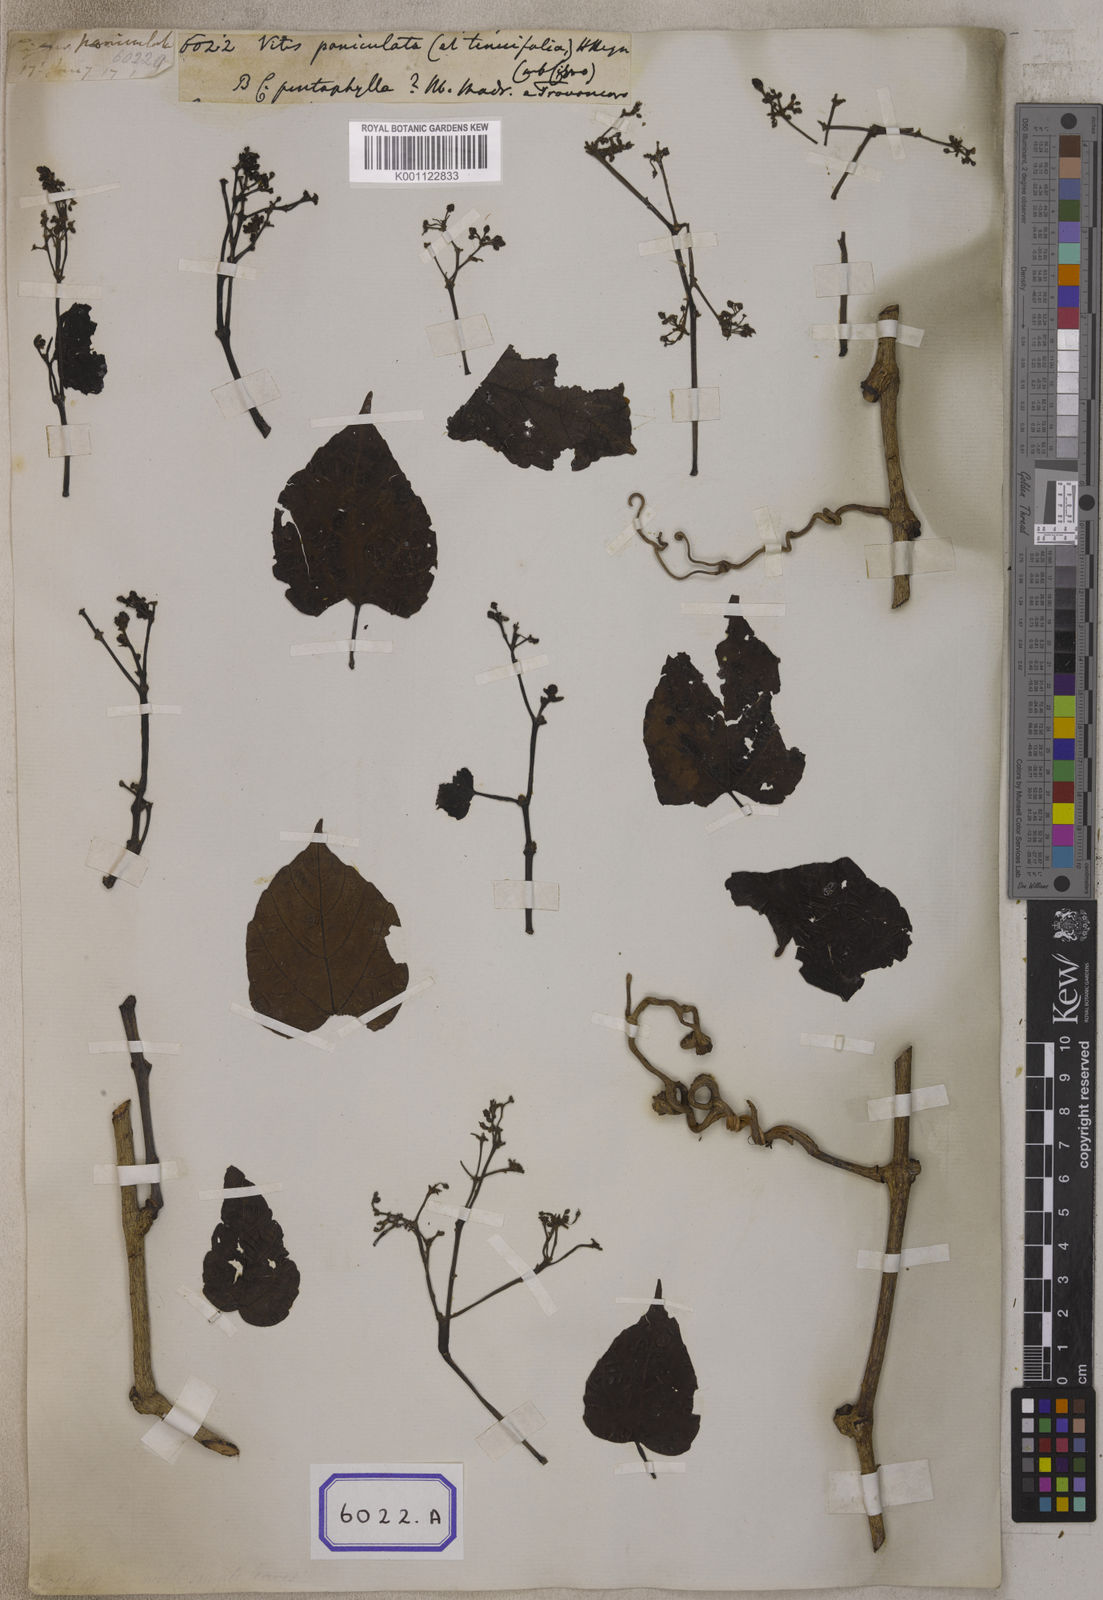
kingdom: Plantae
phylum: Tracheophyta
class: Magnoliopsida
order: Vitales
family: Vitaceae
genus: Causonis
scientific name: Causonis japonica
